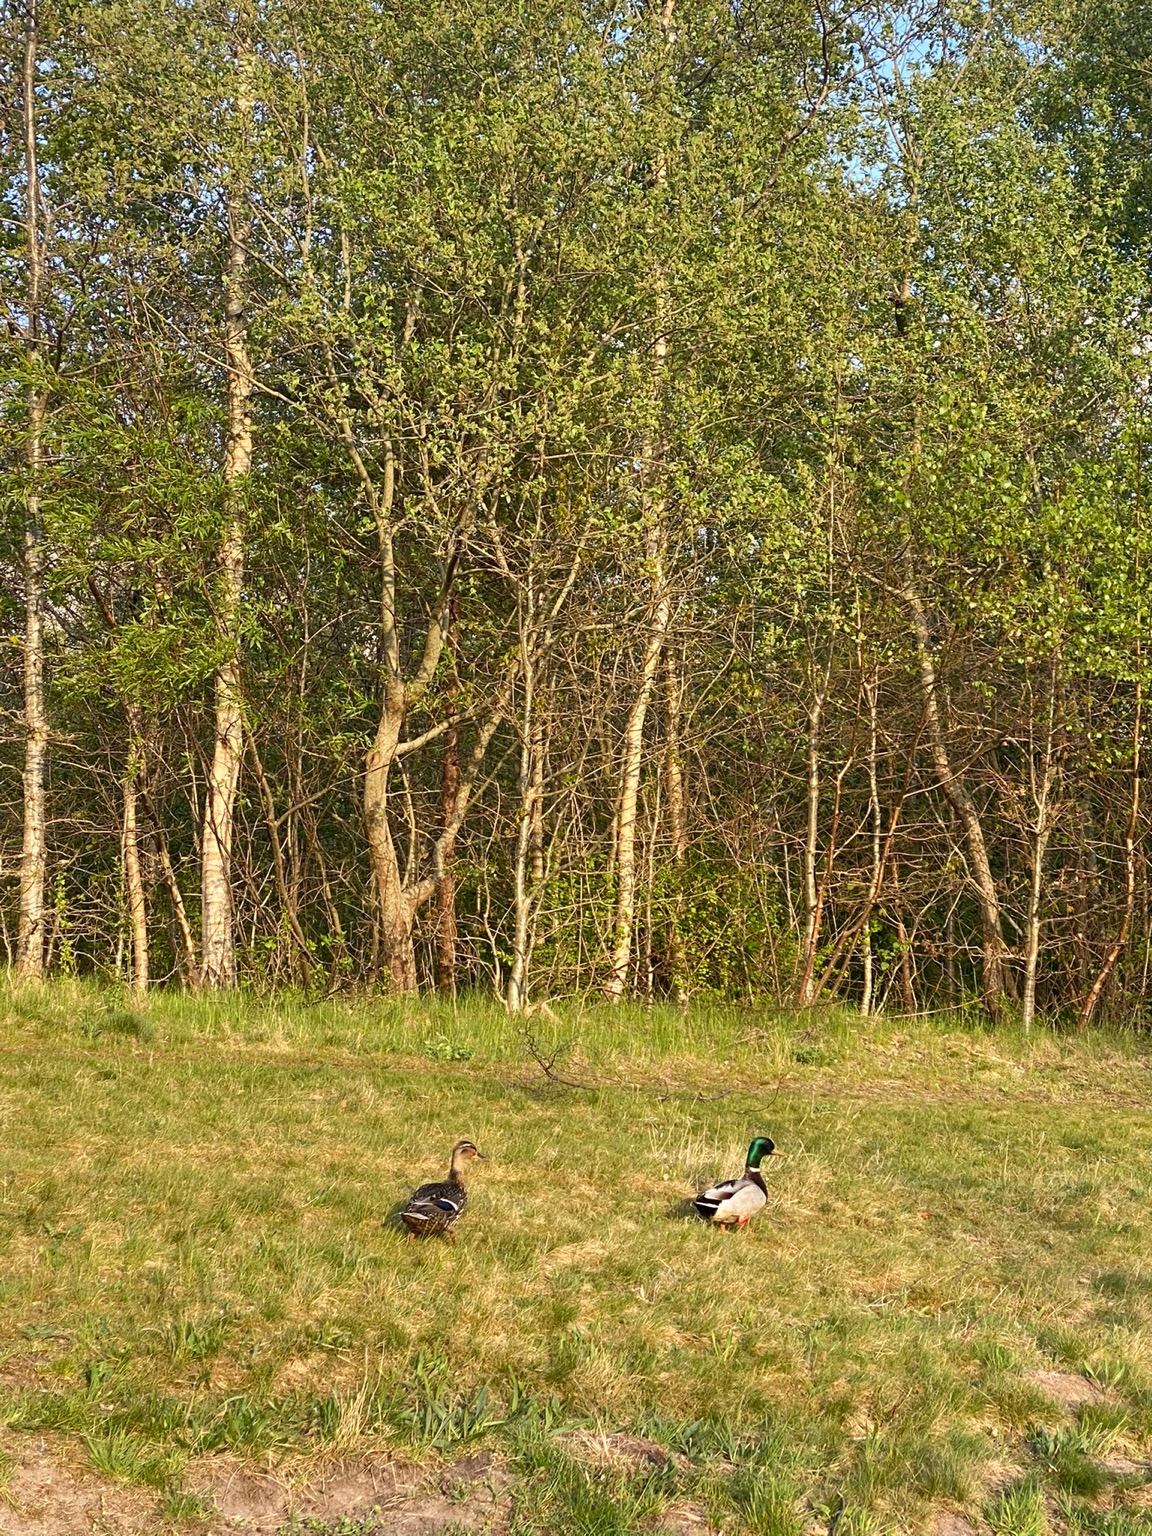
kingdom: Animalia
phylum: Chordata
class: Aves
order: Anseriformes
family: Anatidae
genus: Anas
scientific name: Anas platyrhynchos
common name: Gråand
